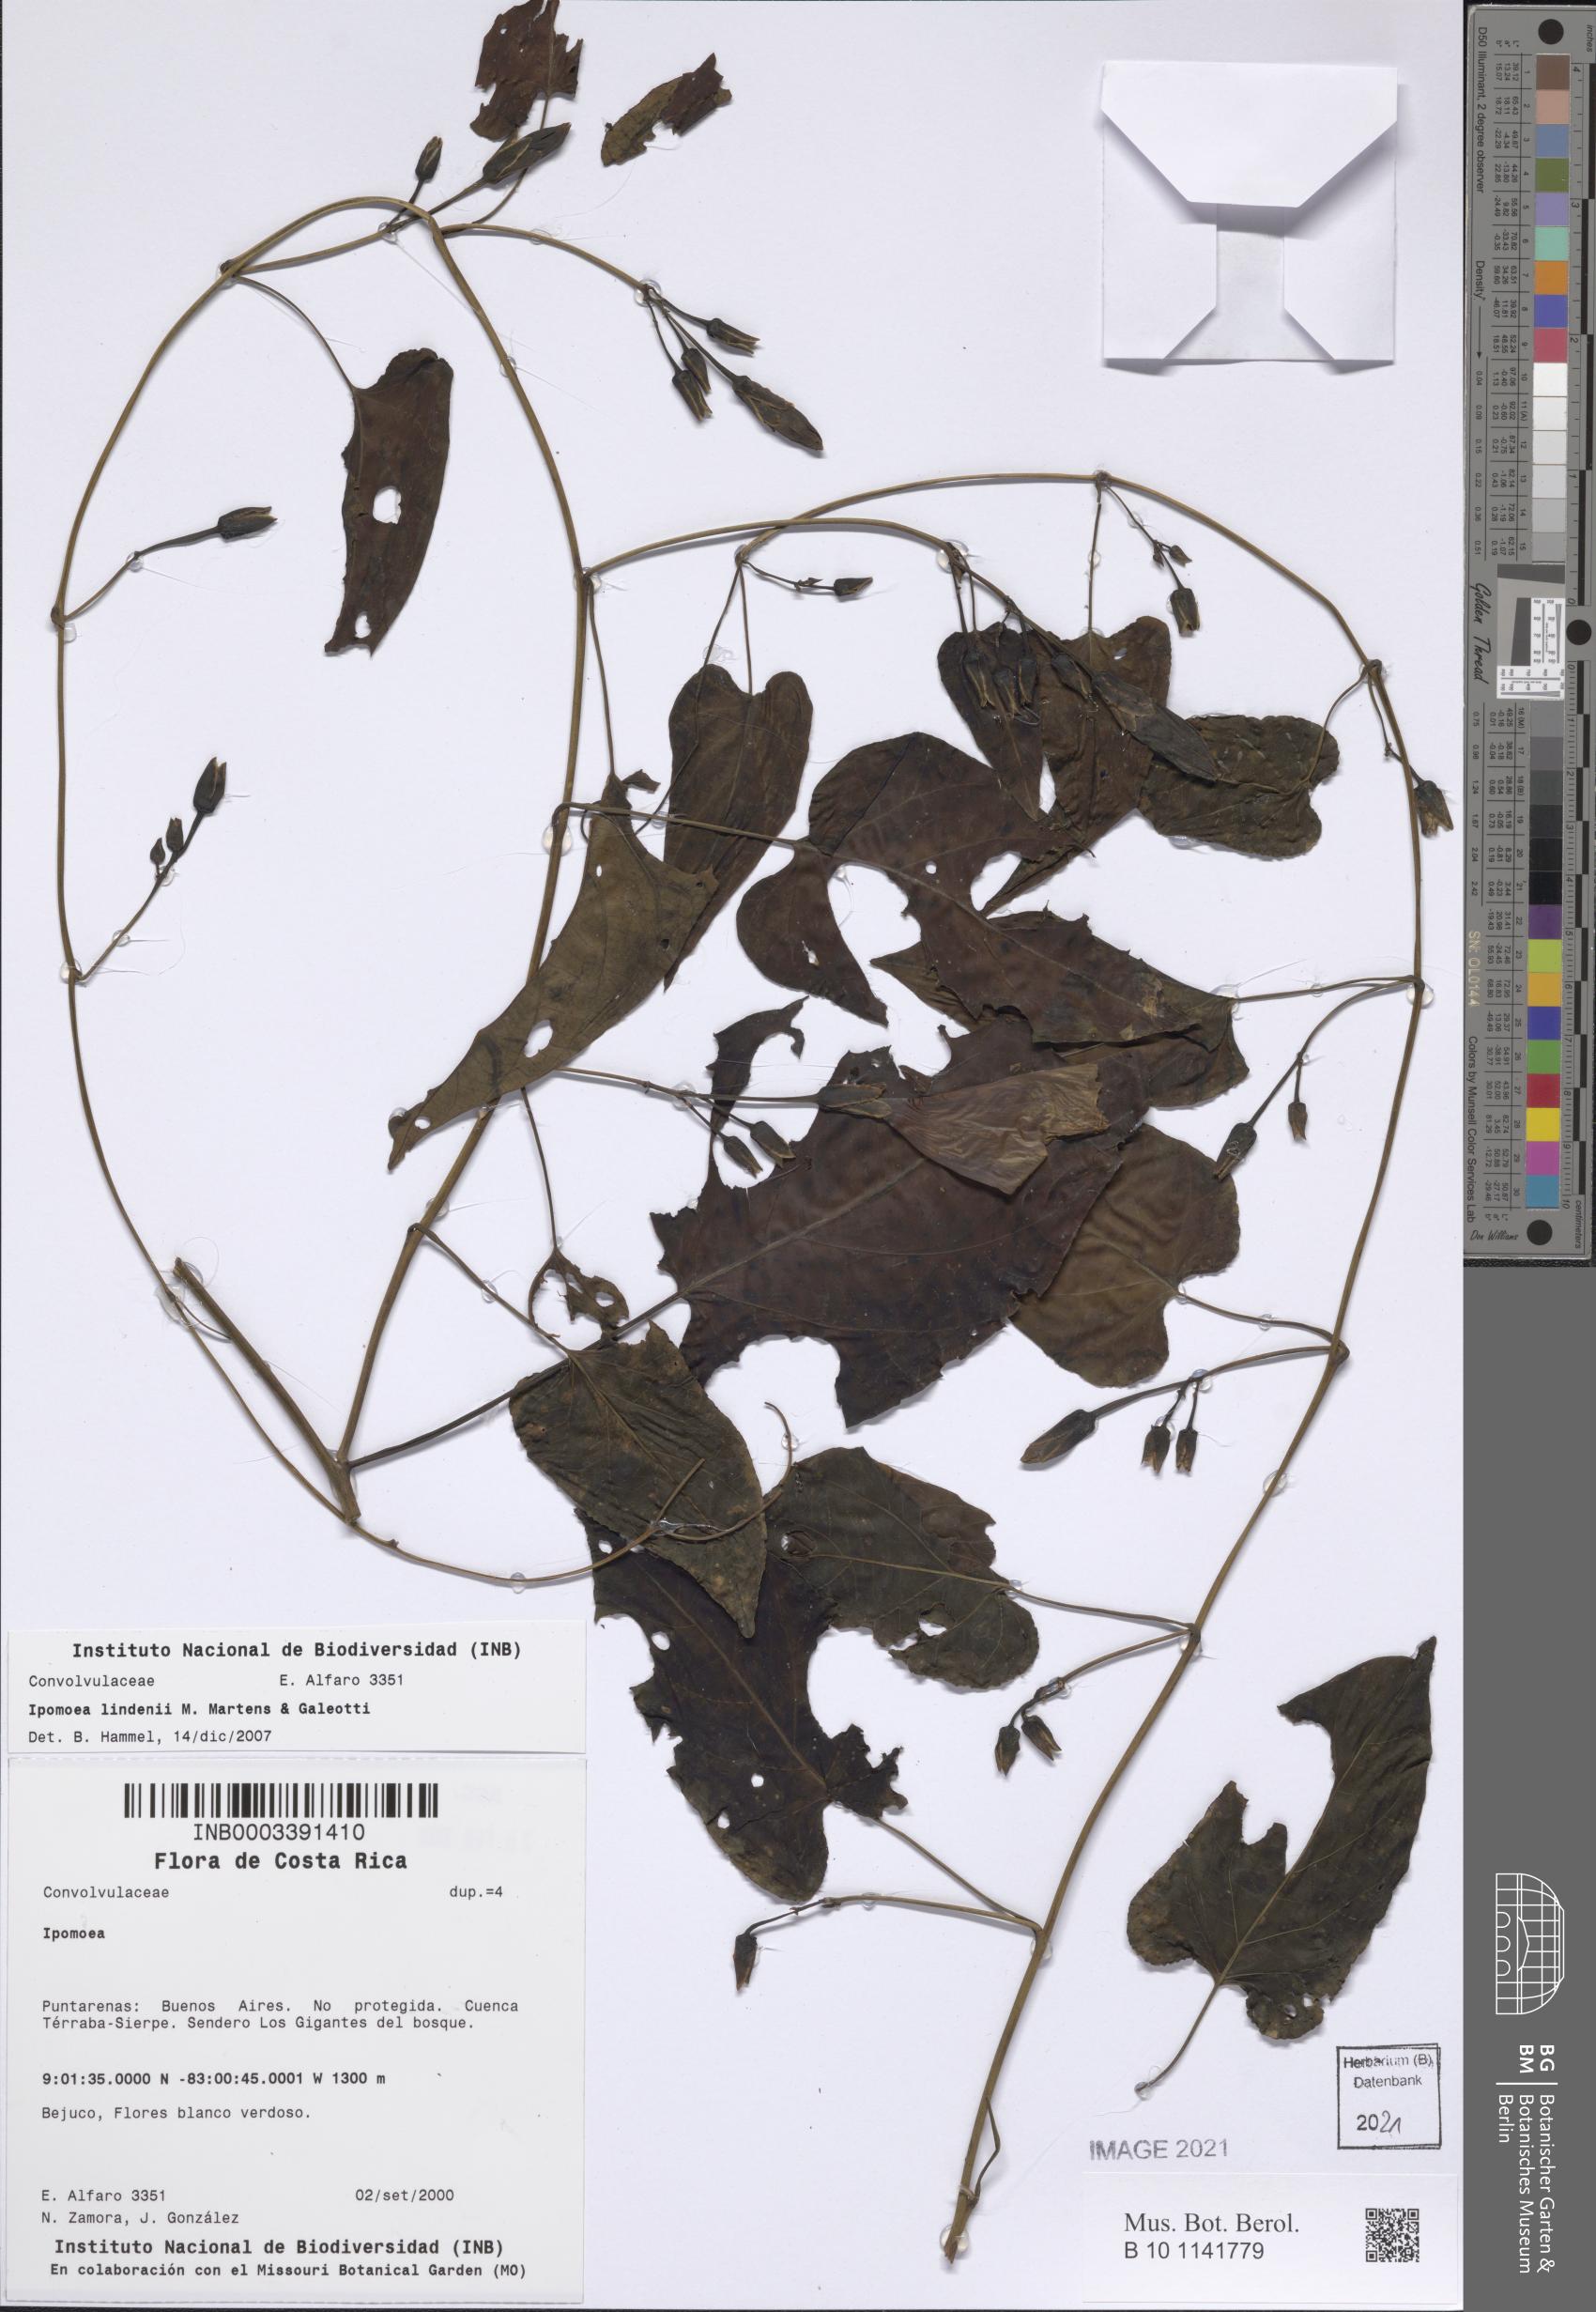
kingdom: Plantae
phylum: Tracheophyta
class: Magnoliopsida
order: Solanales
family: Convolvulaceae
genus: Ipomoea
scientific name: Ipomoea lindenii
